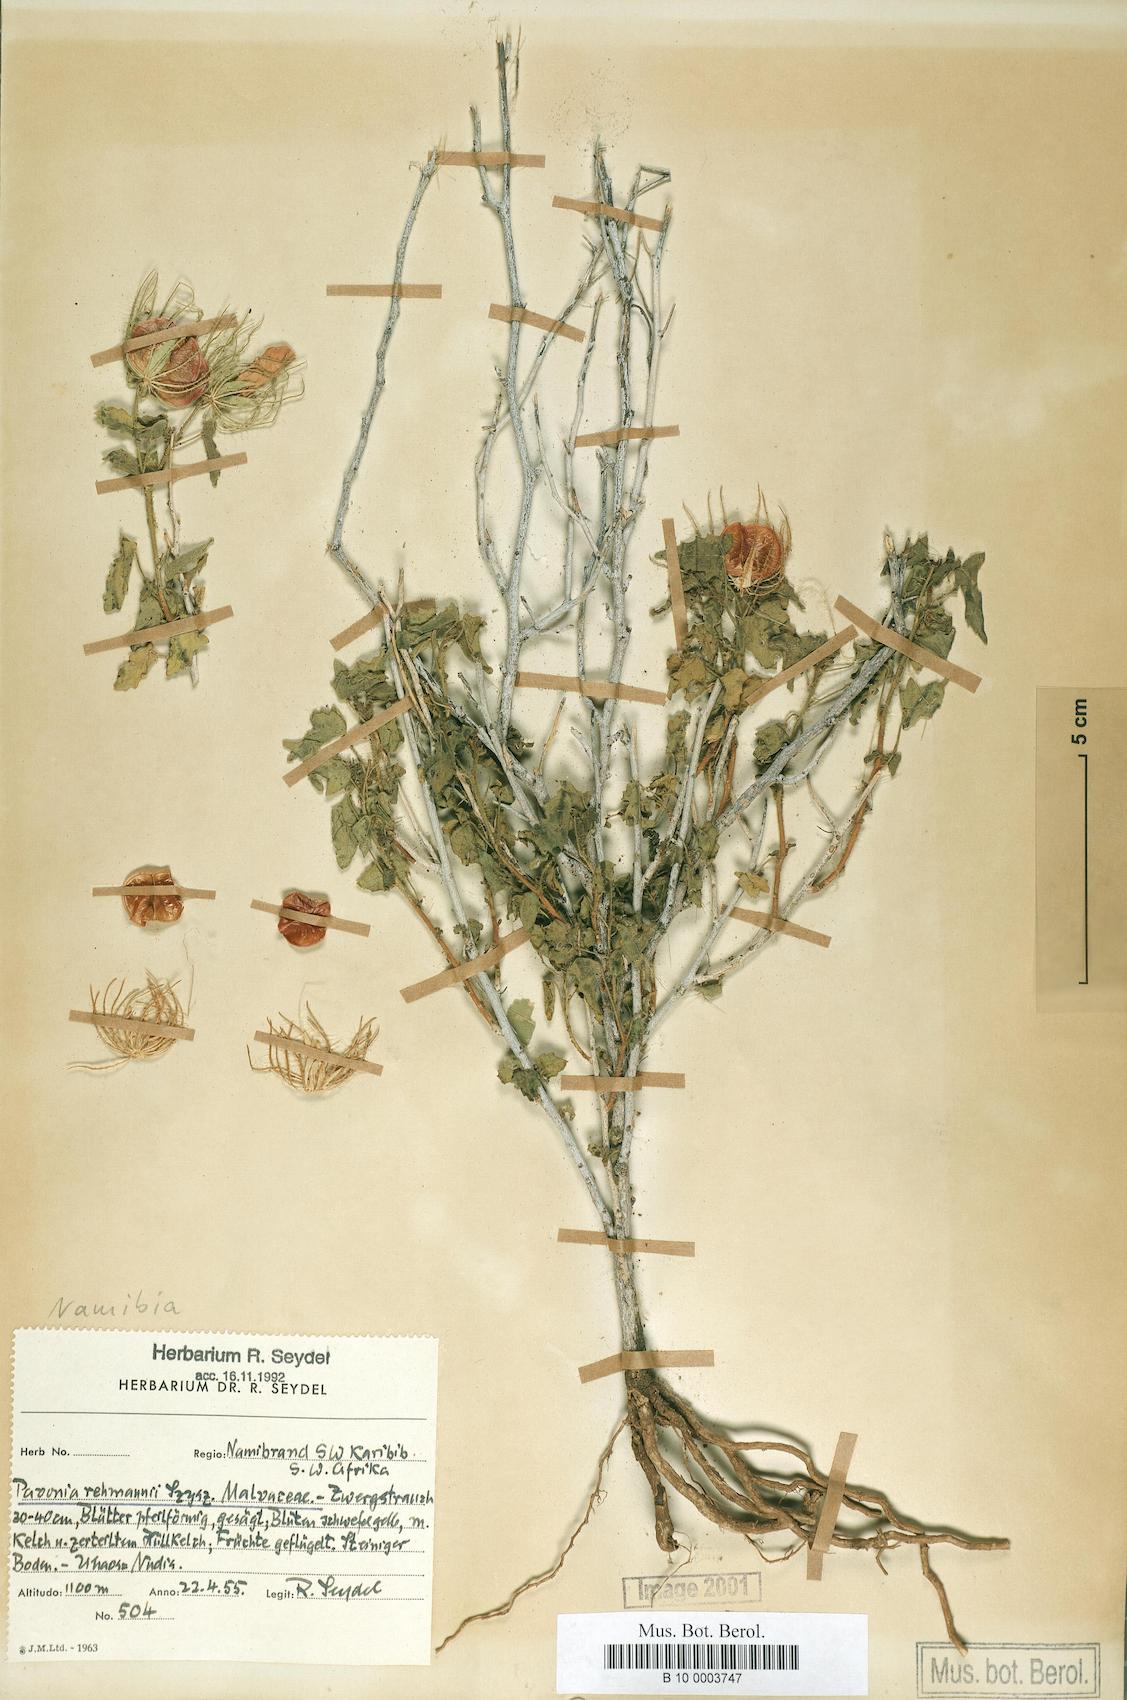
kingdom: Plantae
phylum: Tracheophyta
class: Magnoliopsida
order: Malvales
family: Malvaceae
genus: Pavonia
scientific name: Pavonia rehmannii
